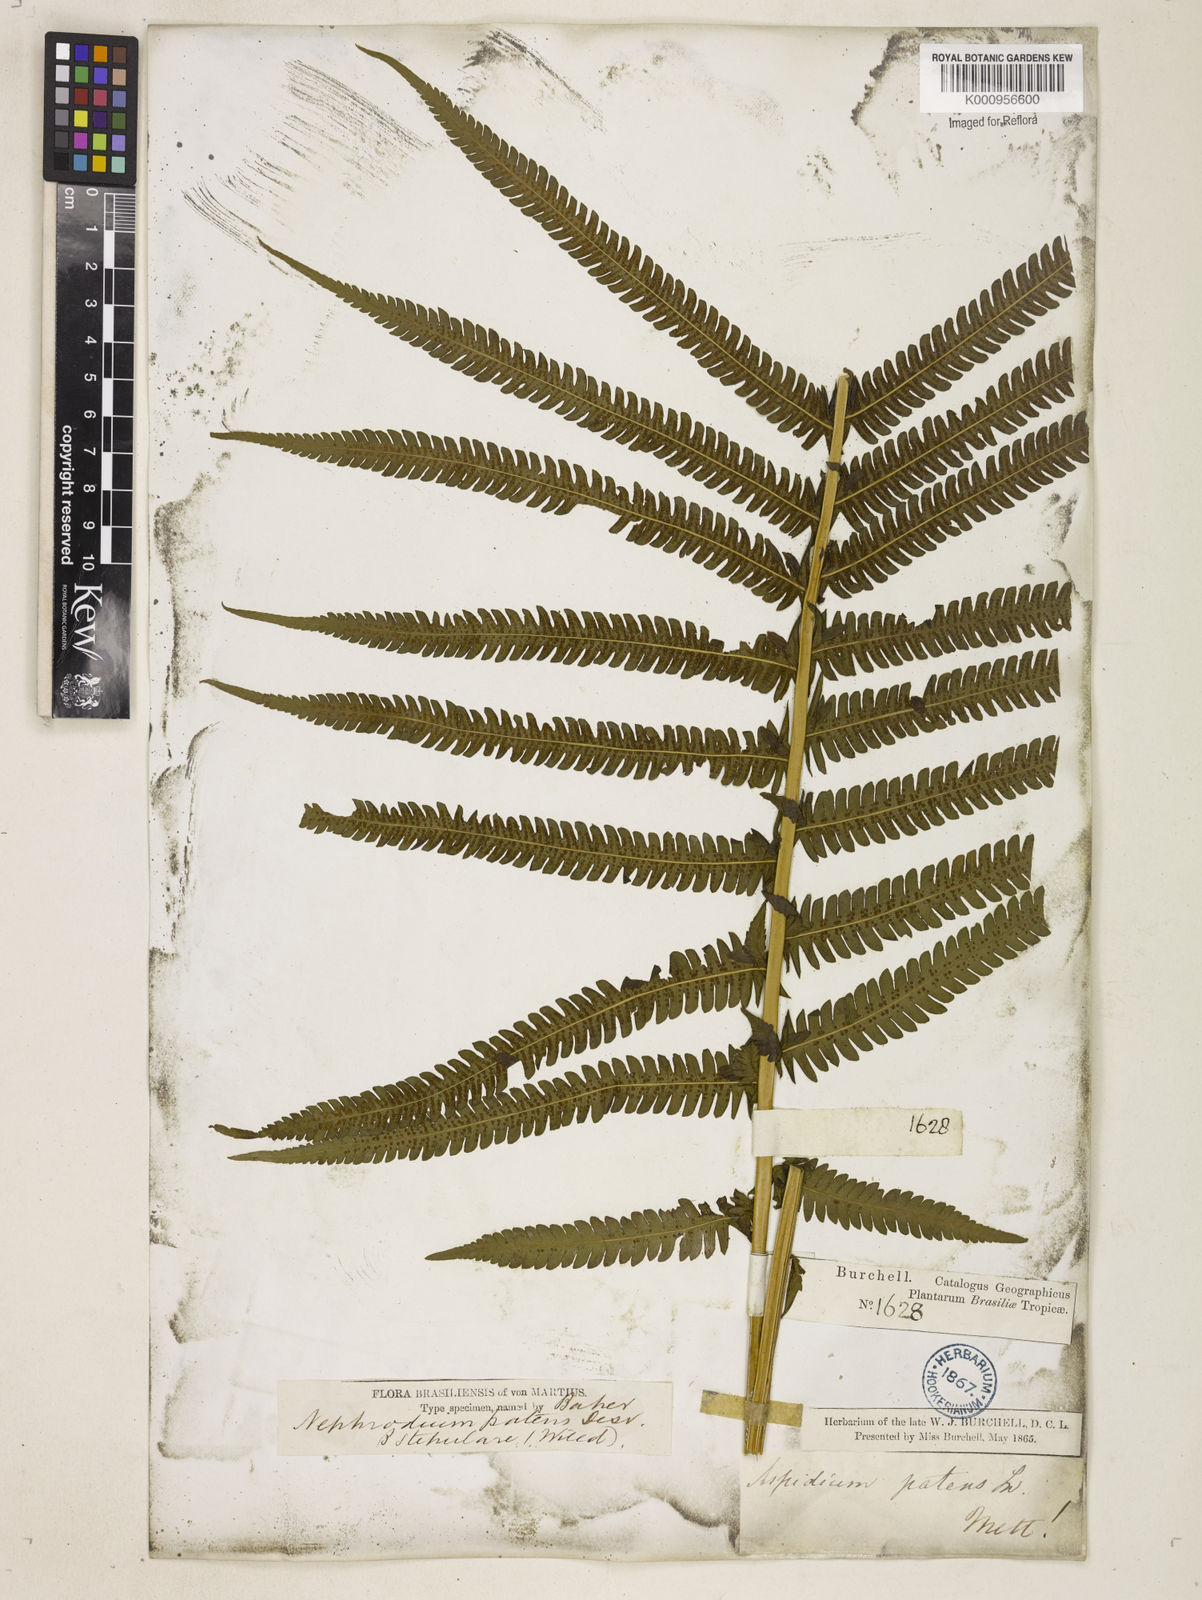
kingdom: Plantae
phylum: Tracheophyta
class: Polypodiopsida
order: Polypodiales
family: Thelypteridaceae
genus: Pelazoneuron
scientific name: Pelazoneuron patens
